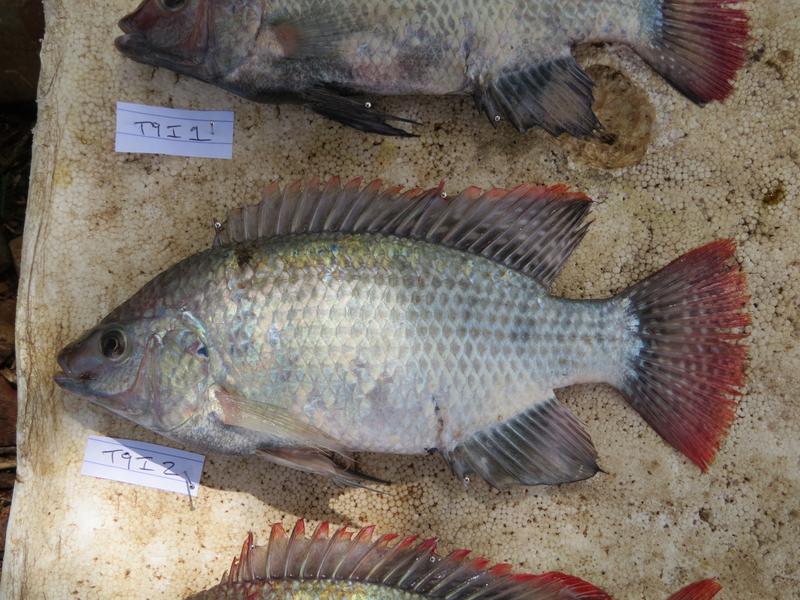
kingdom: Animalia
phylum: Chordata
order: Perciformes
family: Cichlidae
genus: Oreochromis
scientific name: Oreochromis rukwaensis
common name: Lake rukwa tilapia
